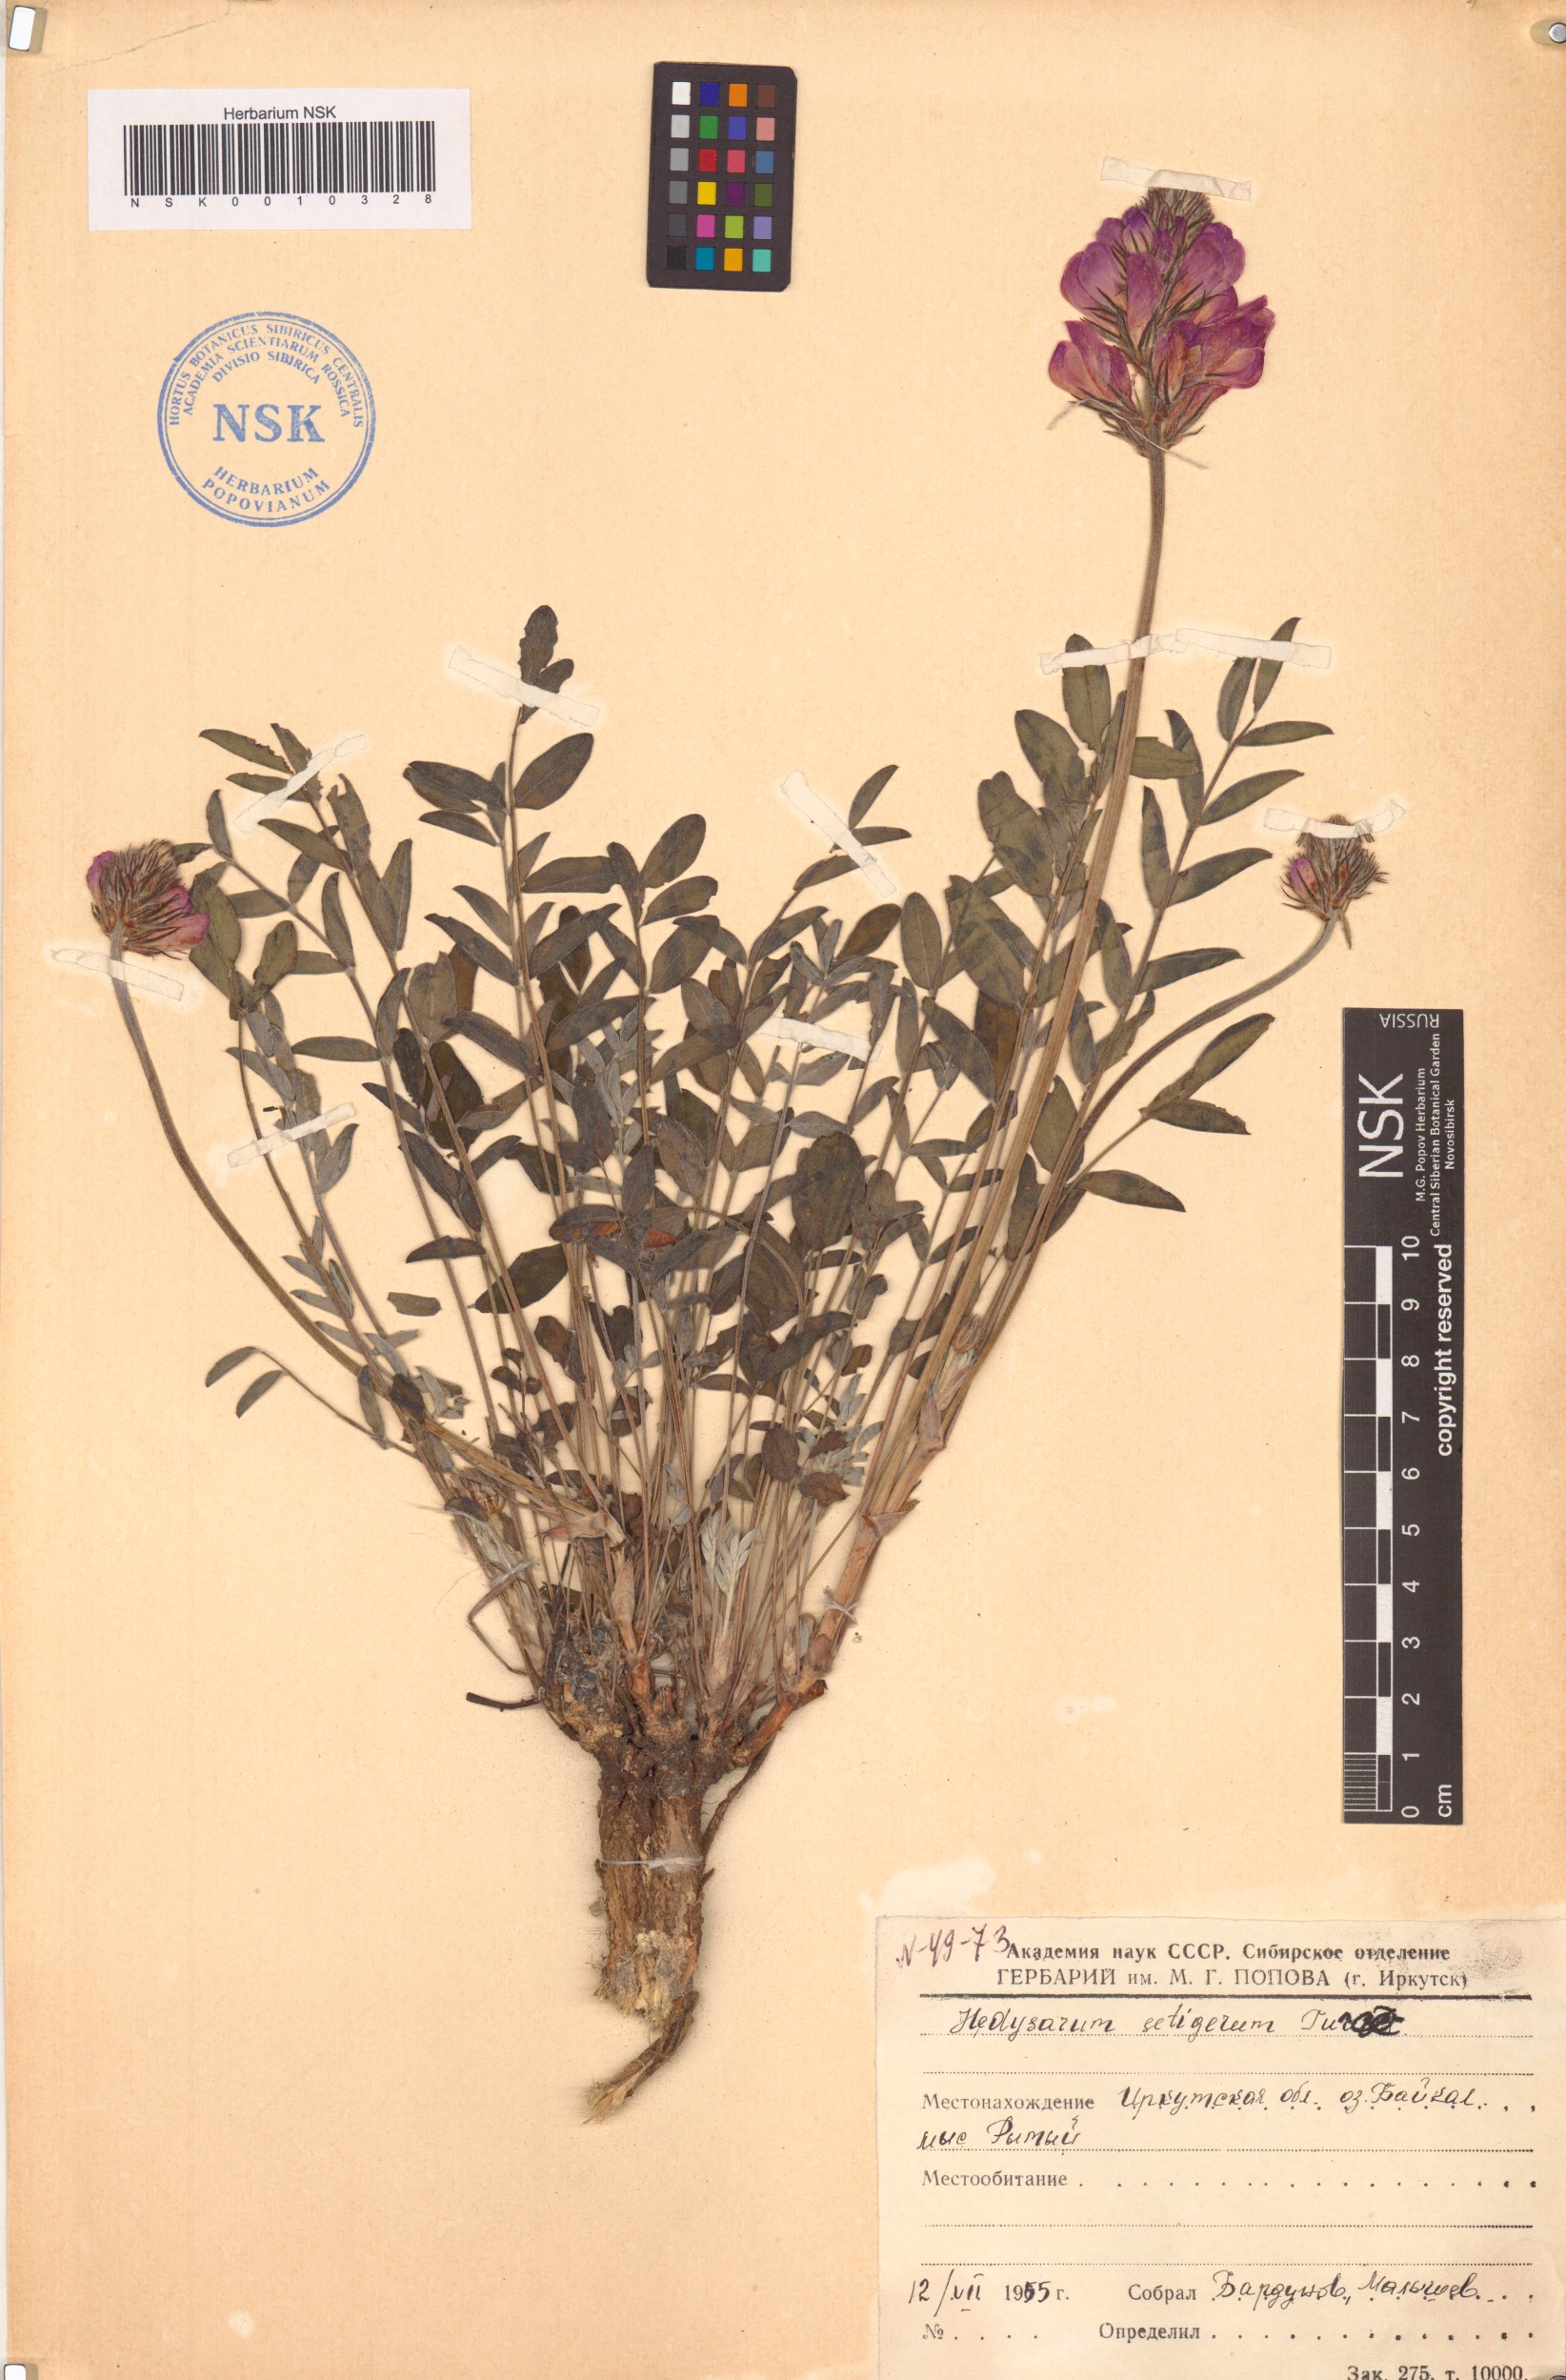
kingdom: Plantae
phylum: Tracheophyta
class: Magnoliopsida
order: Fabales
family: Fabaceae
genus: Hedysarum
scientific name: Hedysarum setigerum
